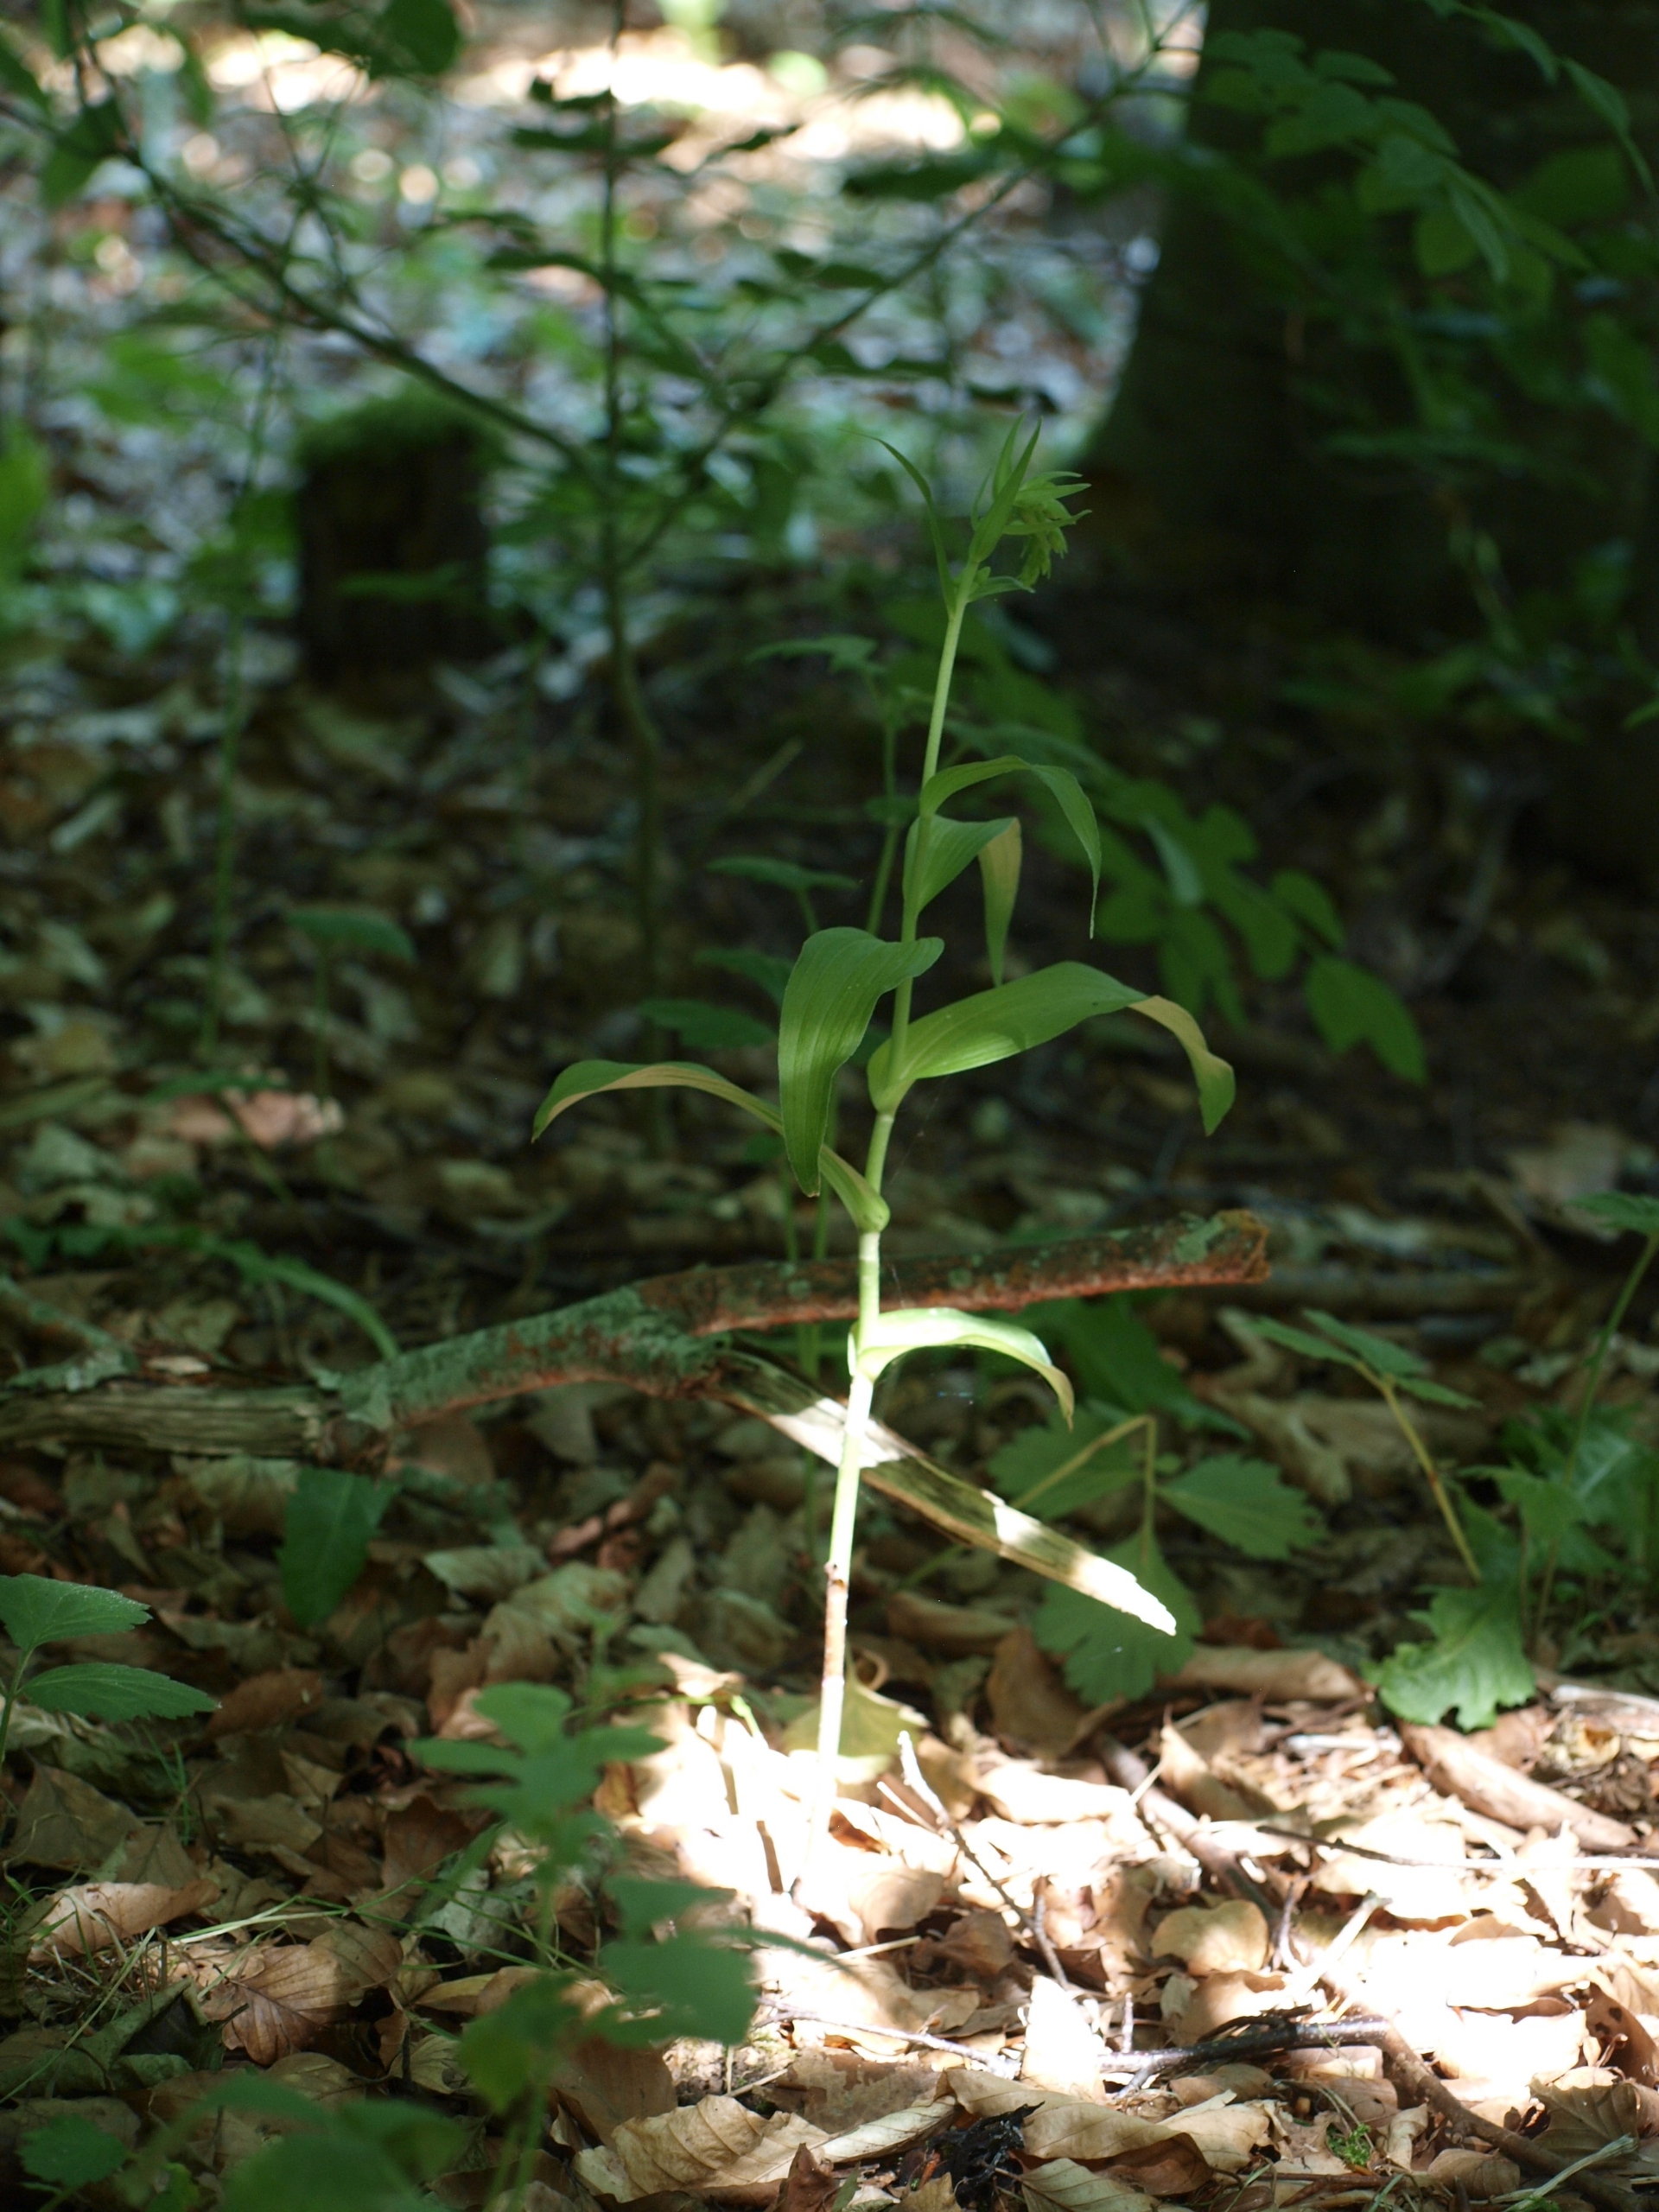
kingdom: Plantae
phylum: Tracheophyta
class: Liliopsida
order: Asparagales
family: Orchidaceae
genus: Epipactis
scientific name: Epipactis helleborine
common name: Skov-hullæbe
